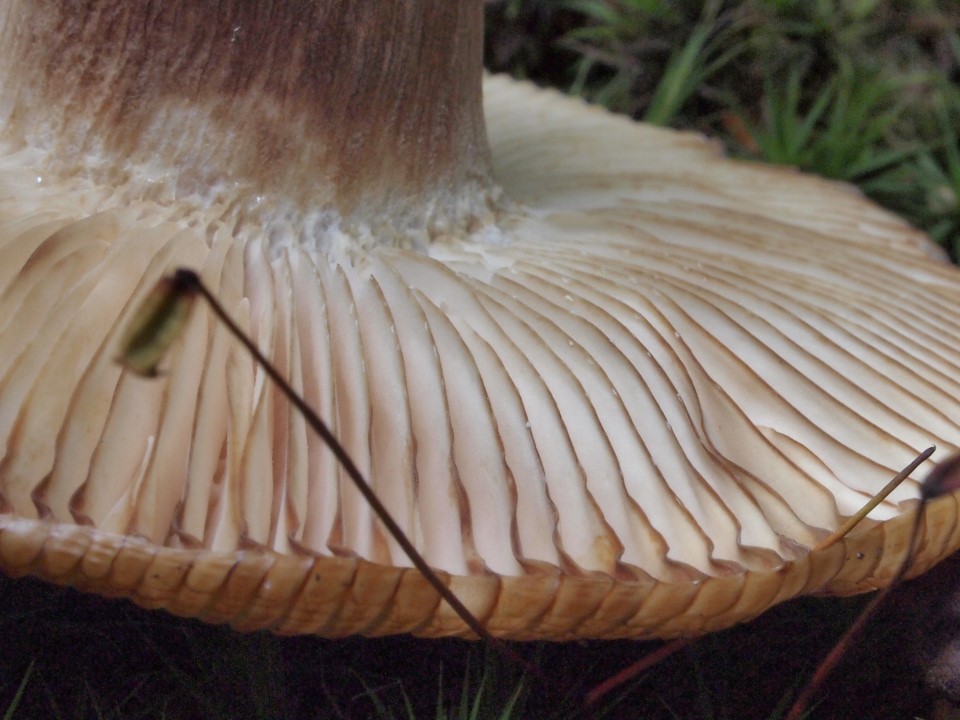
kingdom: Fungi
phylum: Basidiomycota
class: Agaricomycetes
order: Russulales
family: Russulaceae
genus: Russula
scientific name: Russula illota
